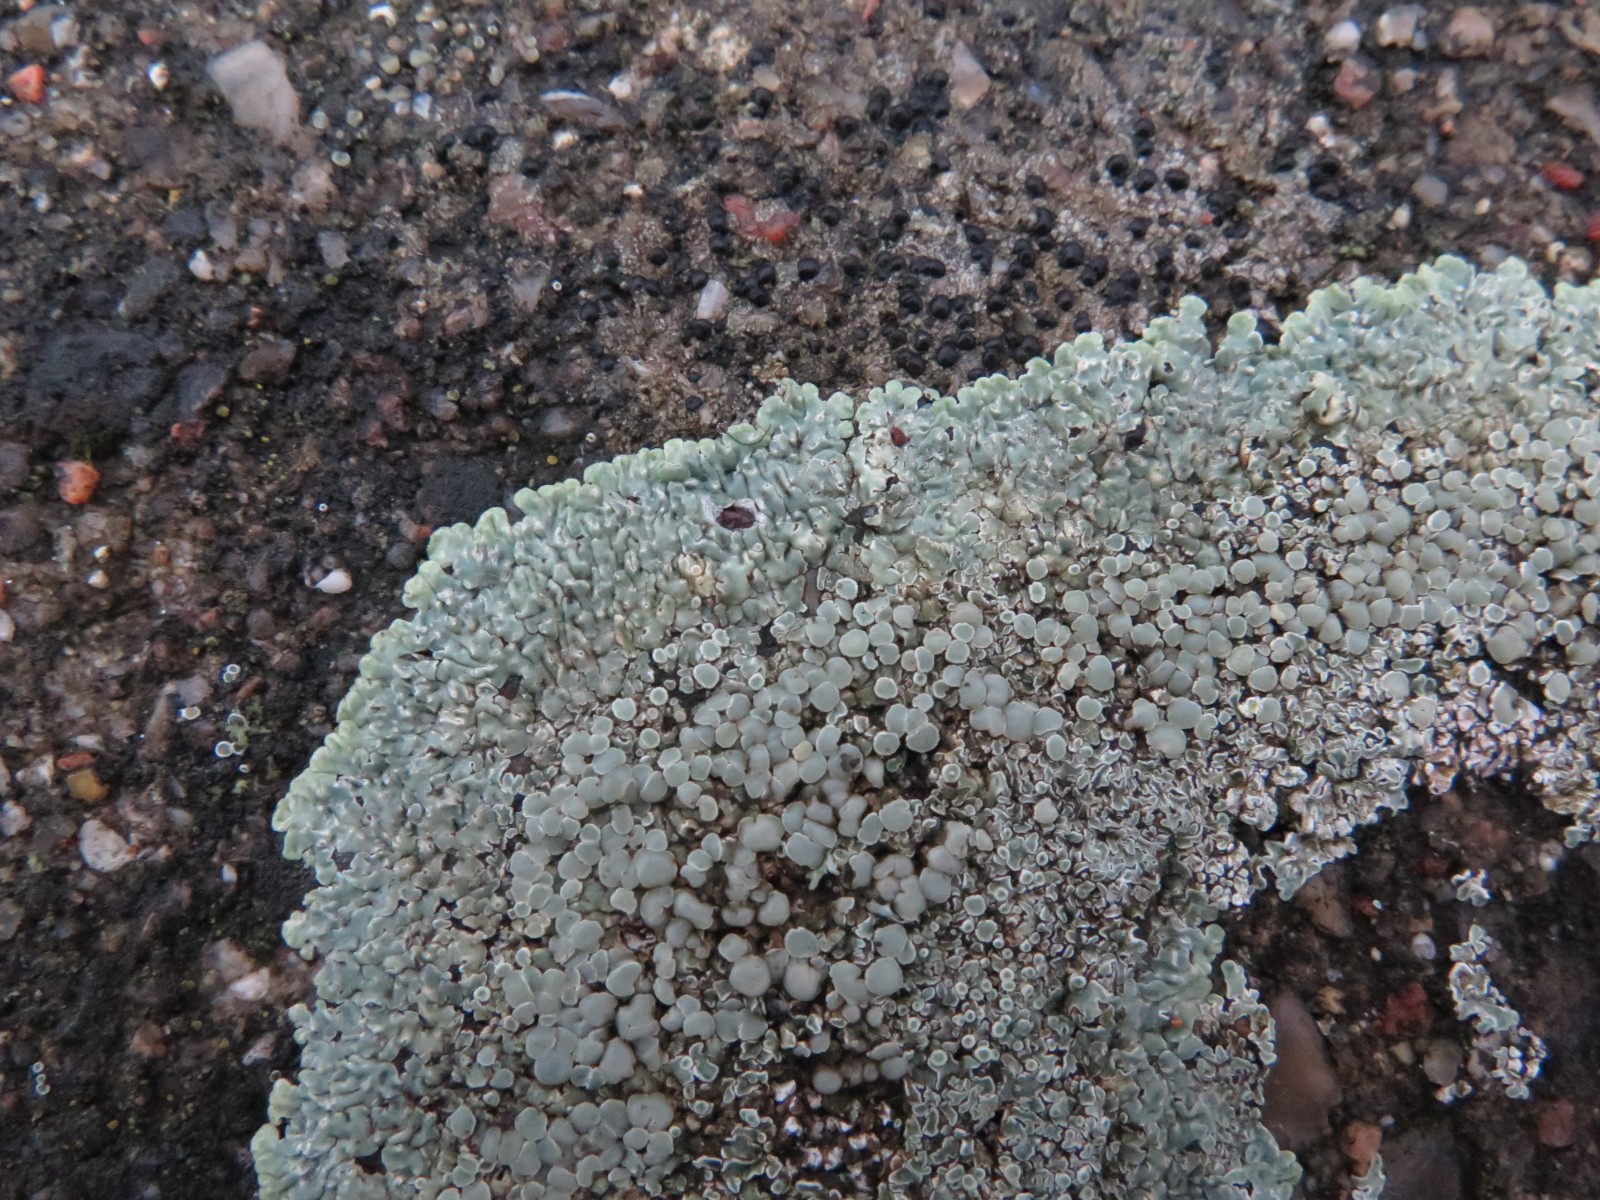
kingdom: Fungi
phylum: Ascomycota
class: Lecanoromycetes
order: Lecanorales
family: Lecanoraceae
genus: Protoparmeliopsis
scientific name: Protoparmeliopsis muralis
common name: randfliget kantskivelav
